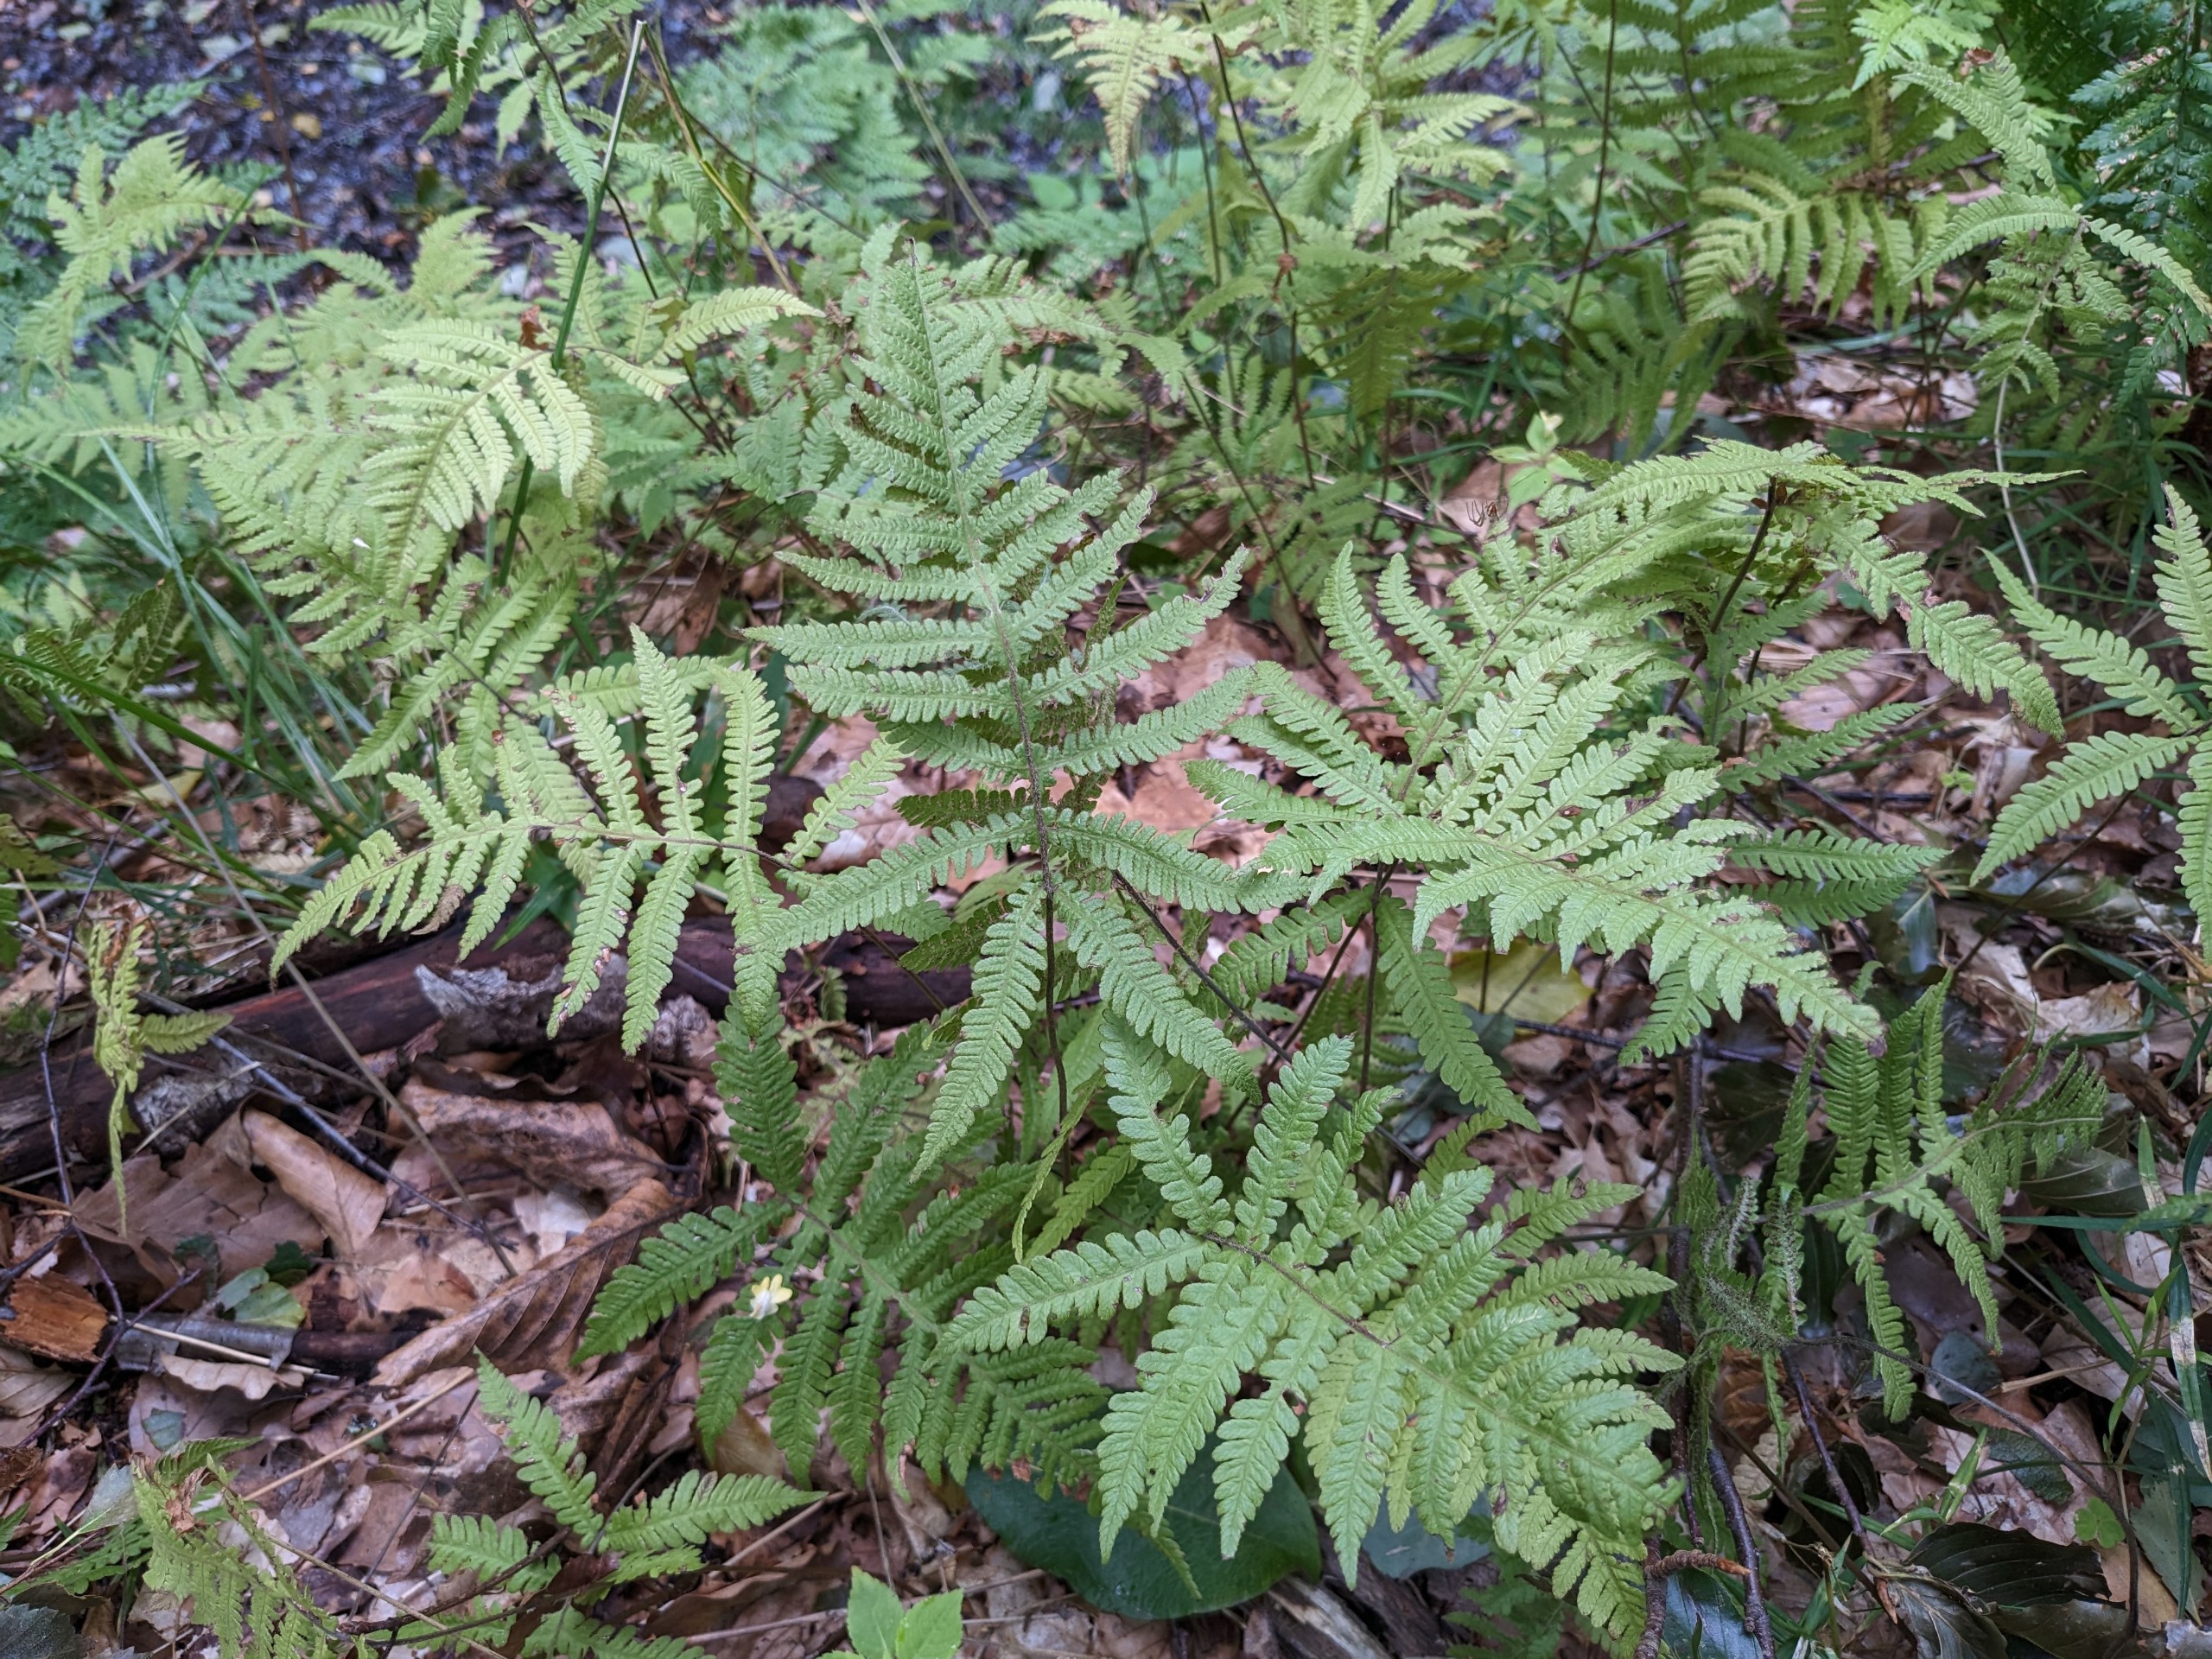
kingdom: Plantae
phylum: Tracheophyta
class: Polypodiopsida
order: Polypodiales
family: Thelypteridaceae
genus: Phegopteris
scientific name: Phegopteris connectilis
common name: Dunet egebregne
